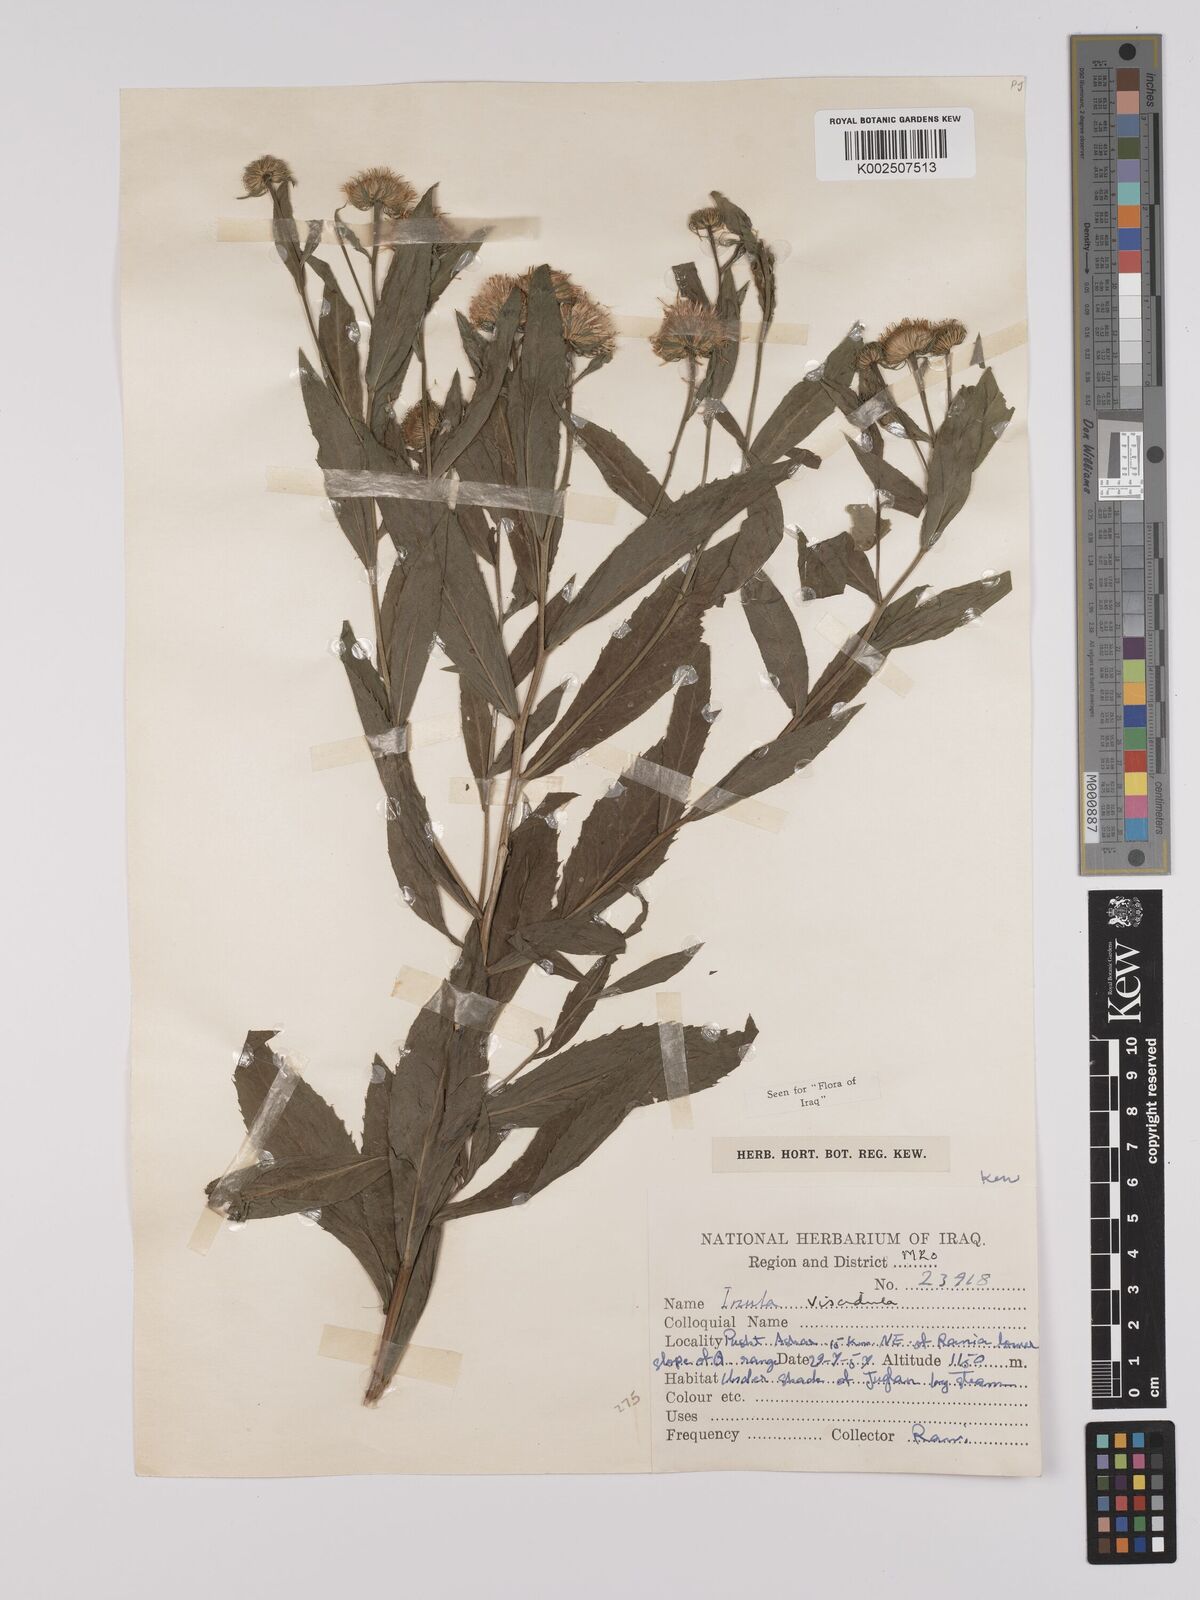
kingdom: Plantae
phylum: Tracheophyta
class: Magnoliopsida
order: Asterales
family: Asteraceae
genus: Inula
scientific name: Inula
